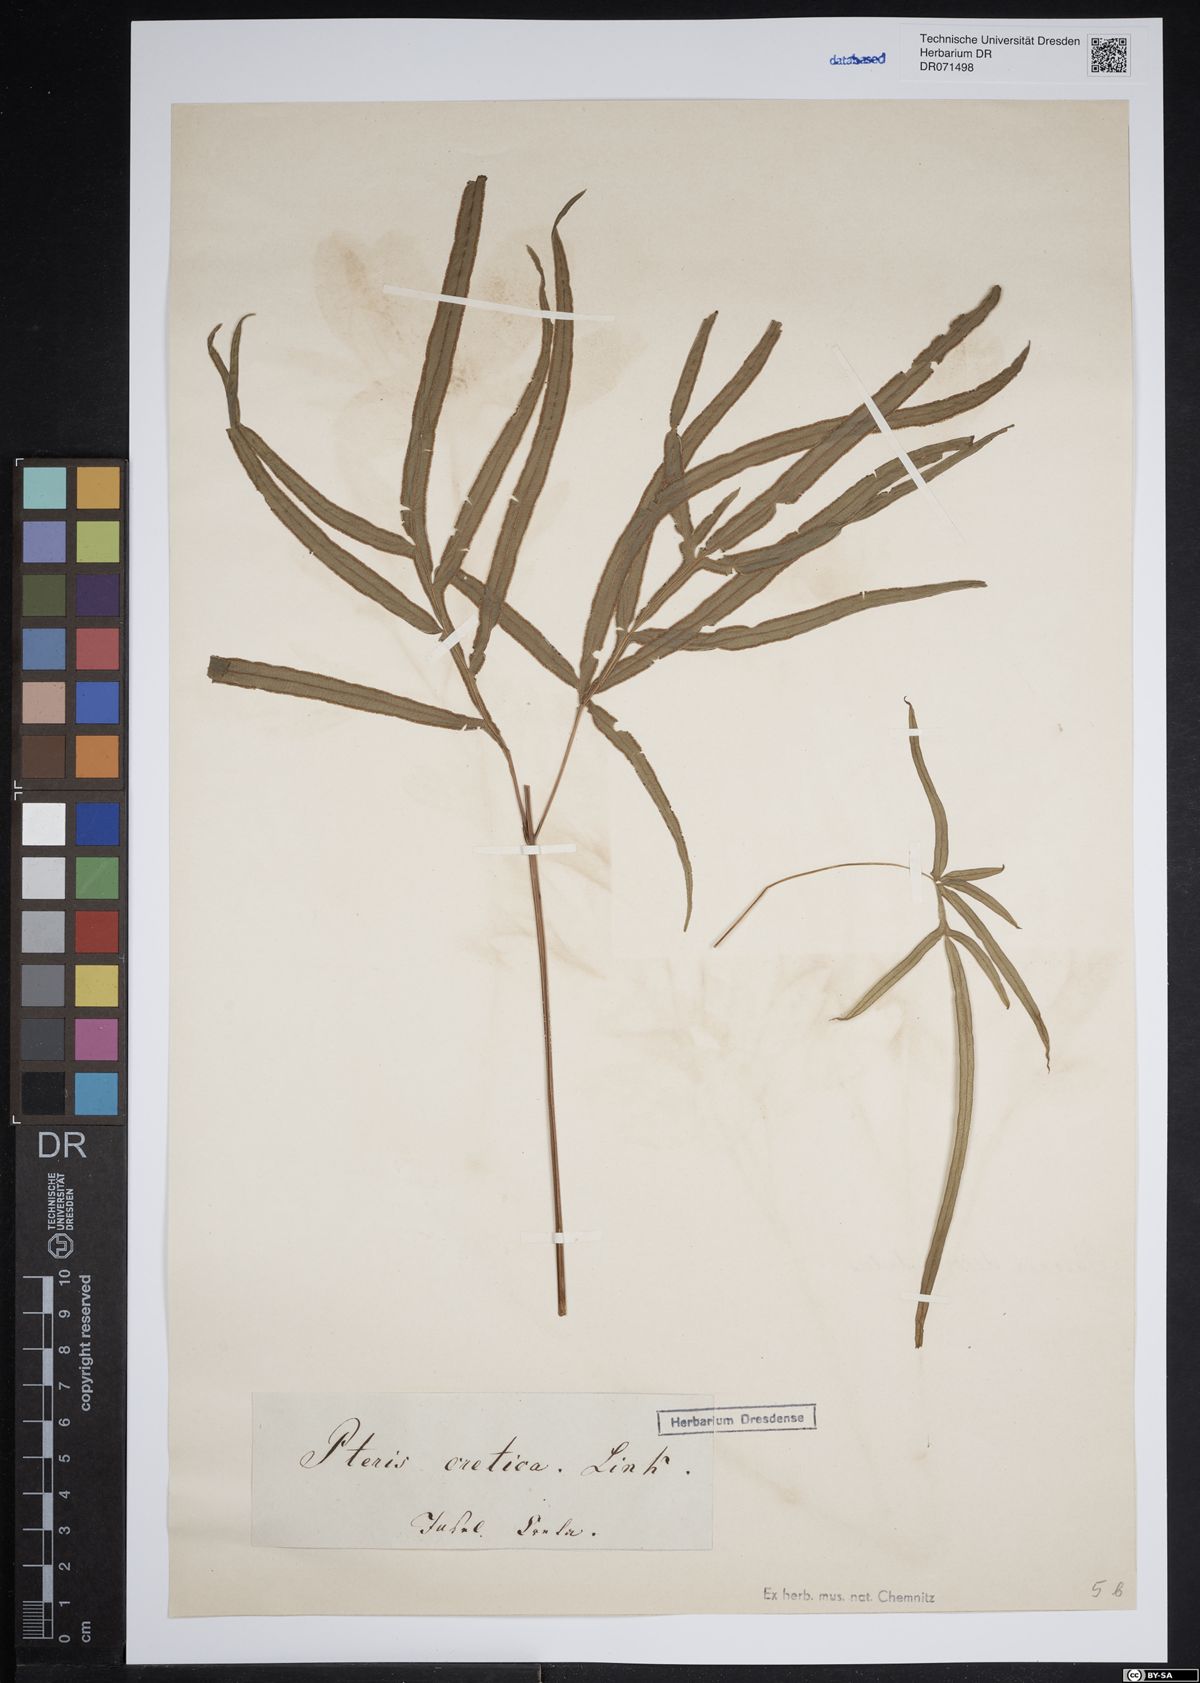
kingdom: Plantae
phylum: Tracheophyta
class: Polypodiopsida
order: Polypodiales
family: Pteridaceae
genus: Pteris
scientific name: Pteris cretica
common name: Ribbon fern
